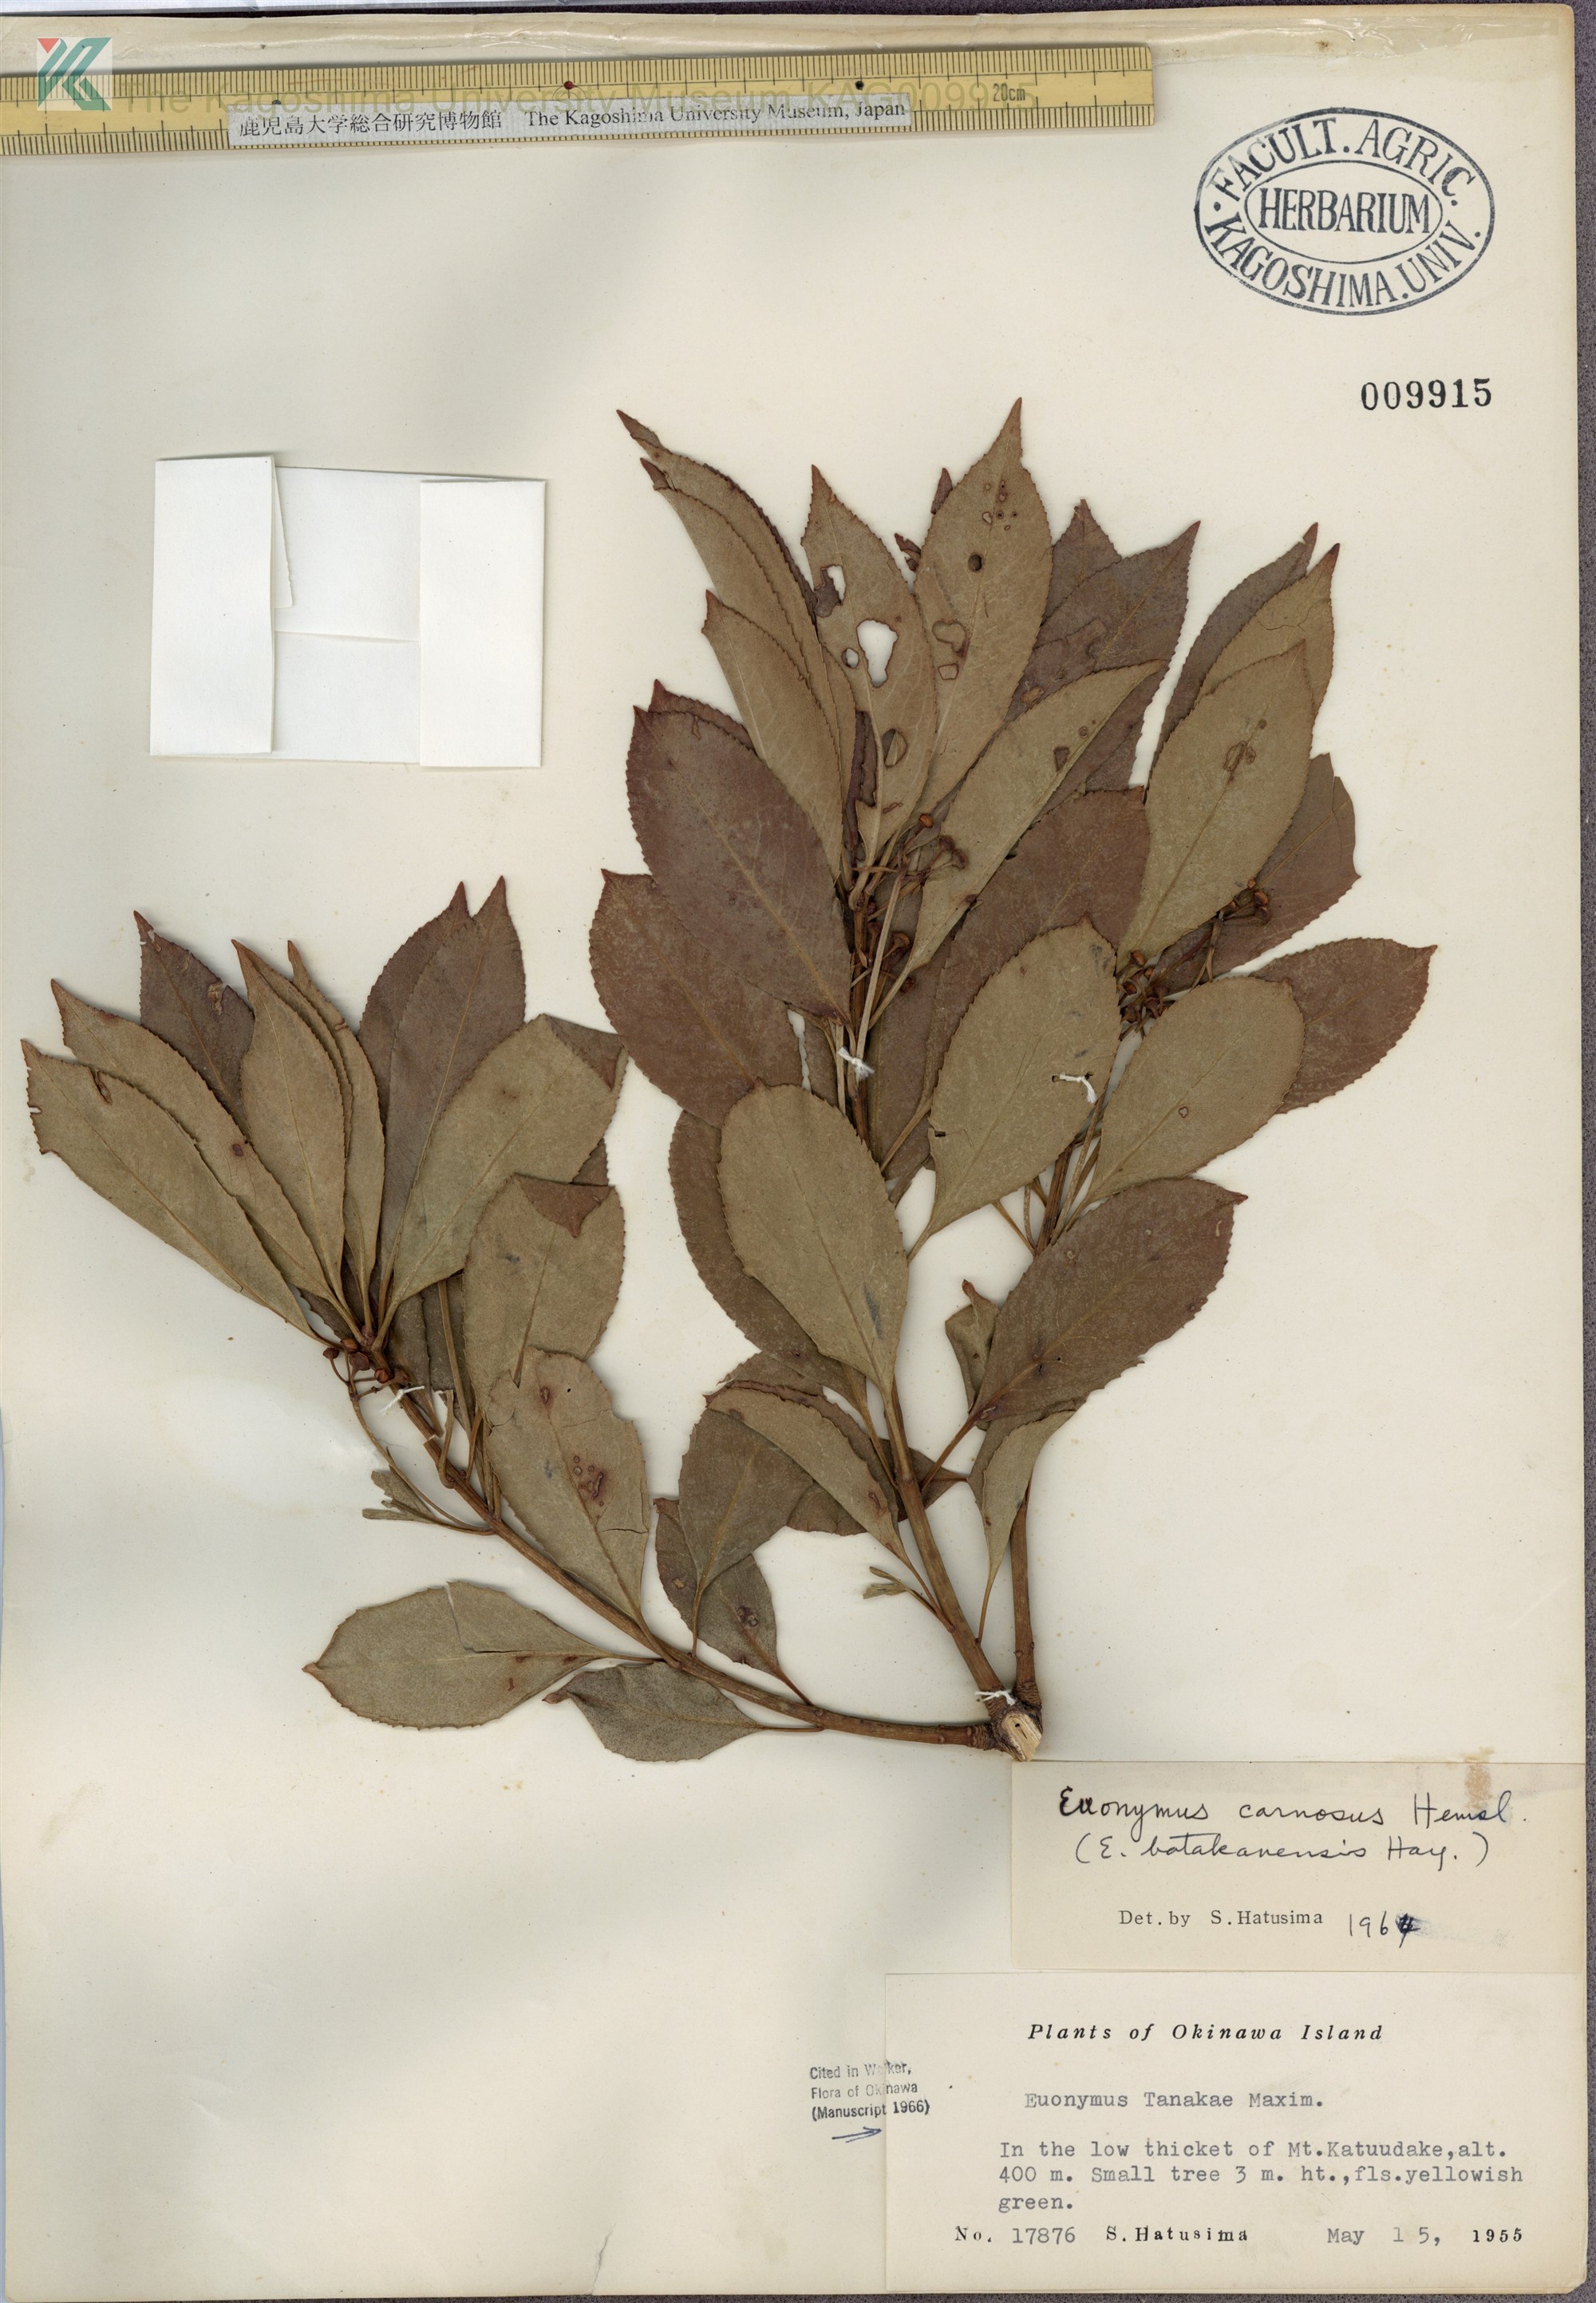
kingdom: Plantae
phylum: Tracheophyta
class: Magnoliopsida
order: Celastrales
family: Celastraceae
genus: Euonymus
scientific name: Euonymus carnosus
